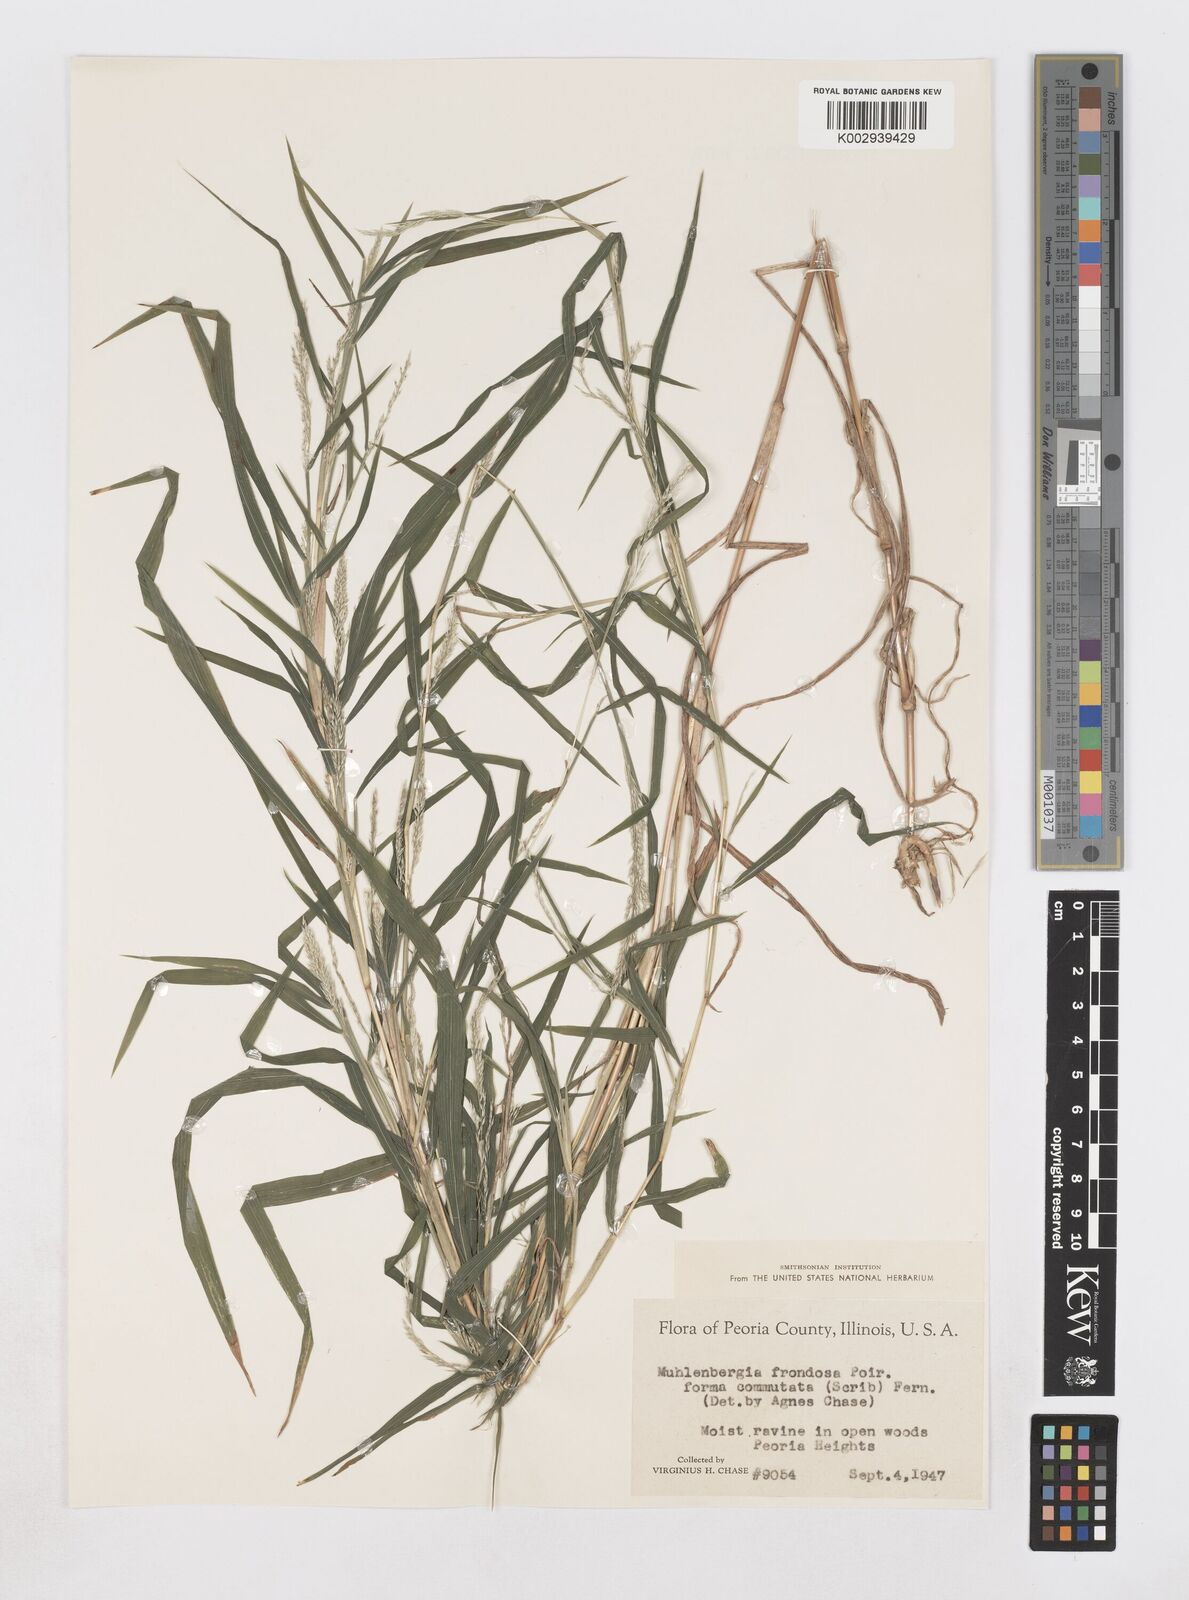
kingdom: Plantae
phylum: Tracheophyta
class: Liliopsida
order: Poales
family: Poaceae
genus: Muhlenbergia
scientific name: Muhlenbergia frondosa
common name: Common satingrass
